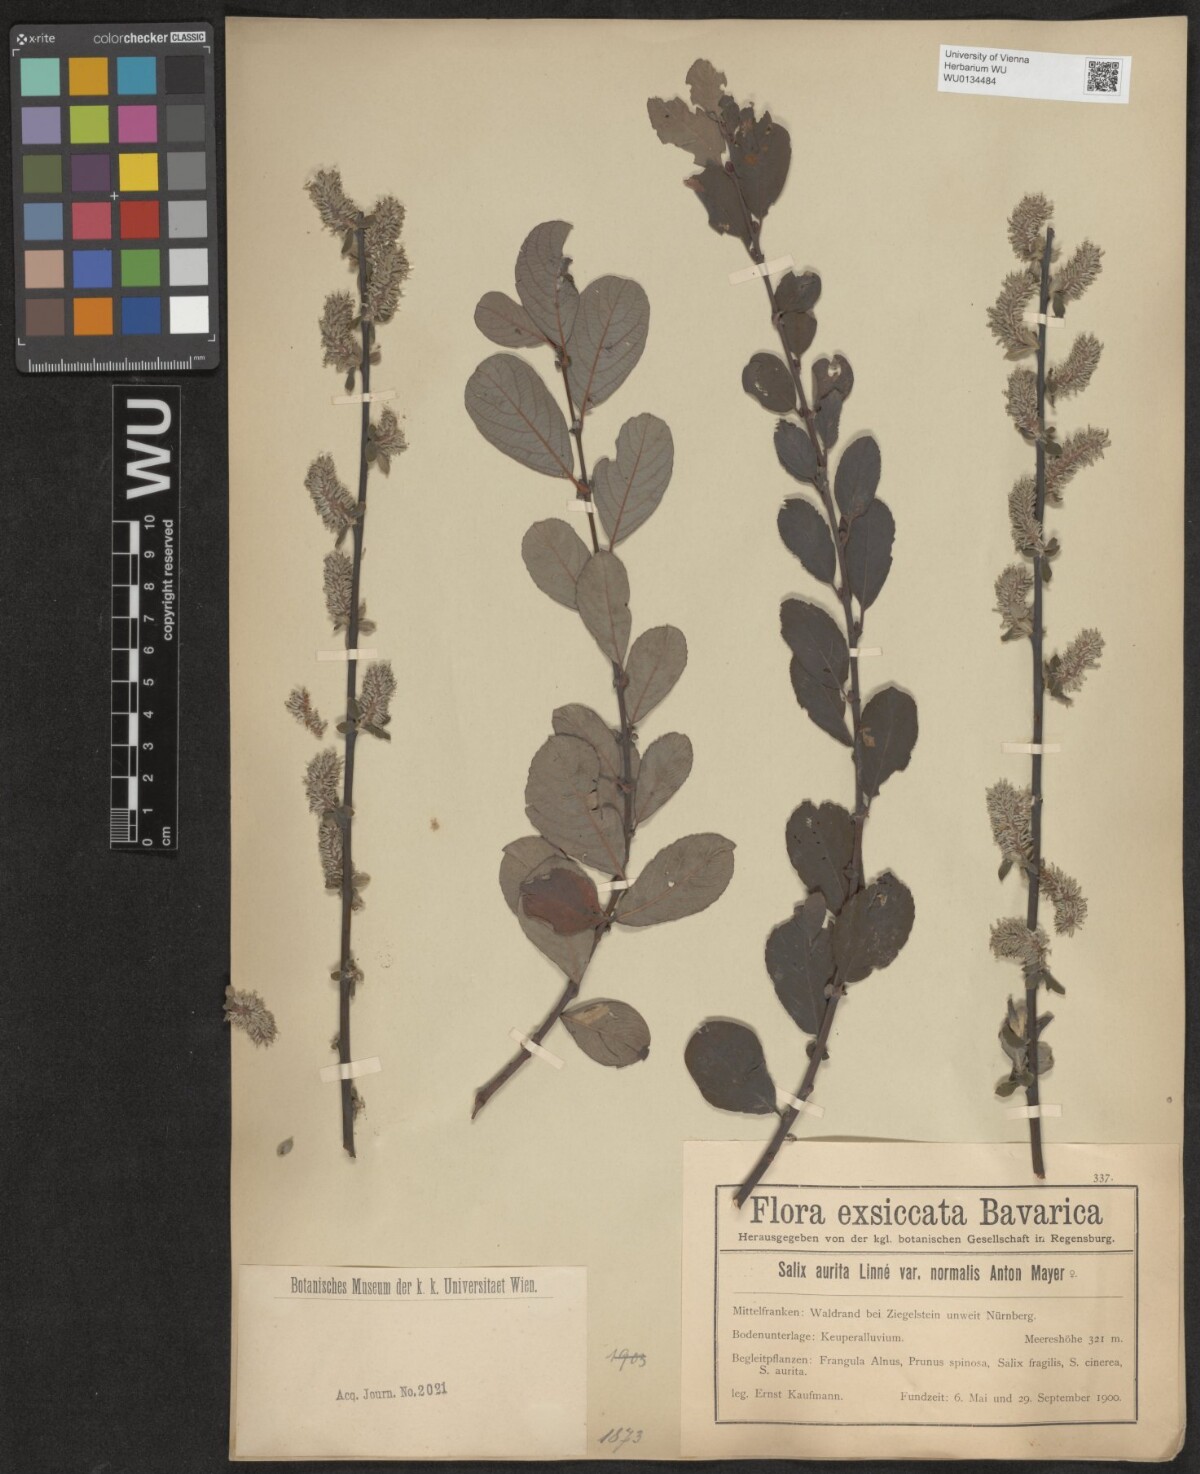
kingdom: Plantae
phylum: Tracheophyta
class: Magnoliopsida
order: Malpighiales
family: Salicaceae
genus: Salix
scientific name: Salix aurita
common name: Eared willow
